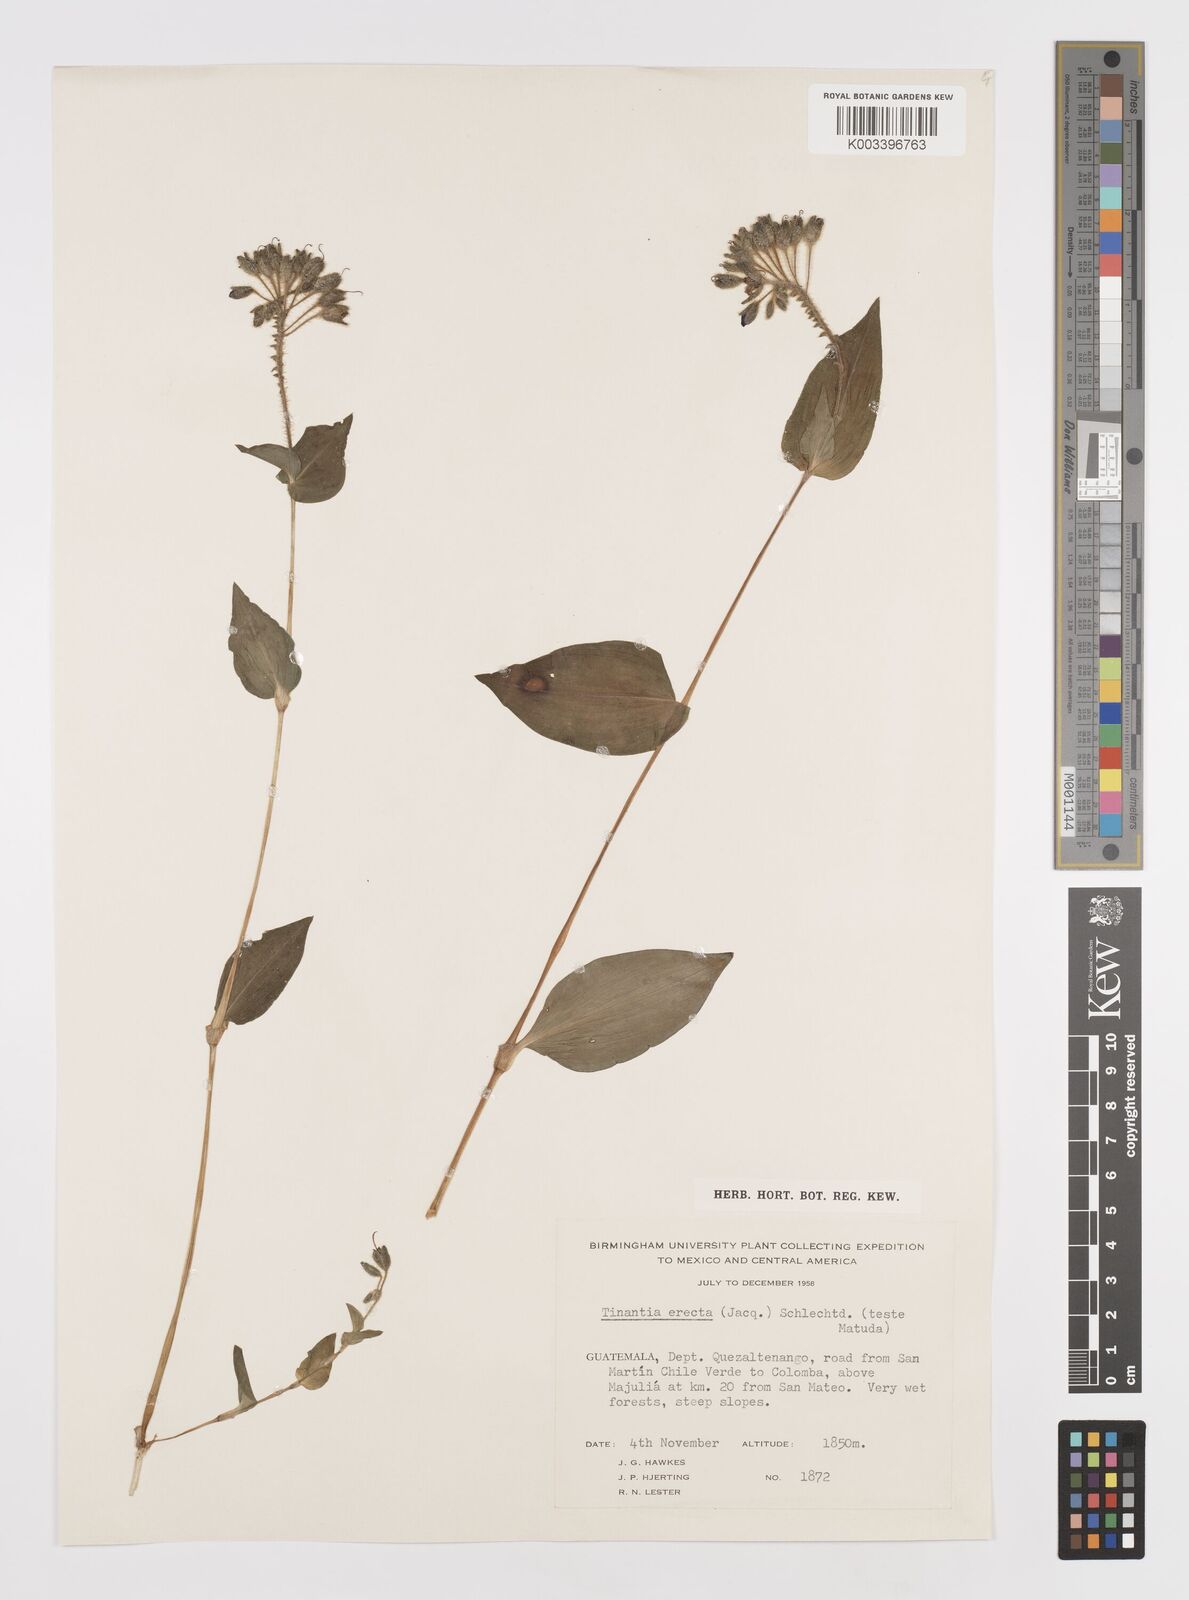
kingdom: Plantae
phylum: Tracheophyta
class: Liliopsida
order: Commelinales
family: Commelinaceae
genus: Tinantia
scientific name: Tinantia erecta
